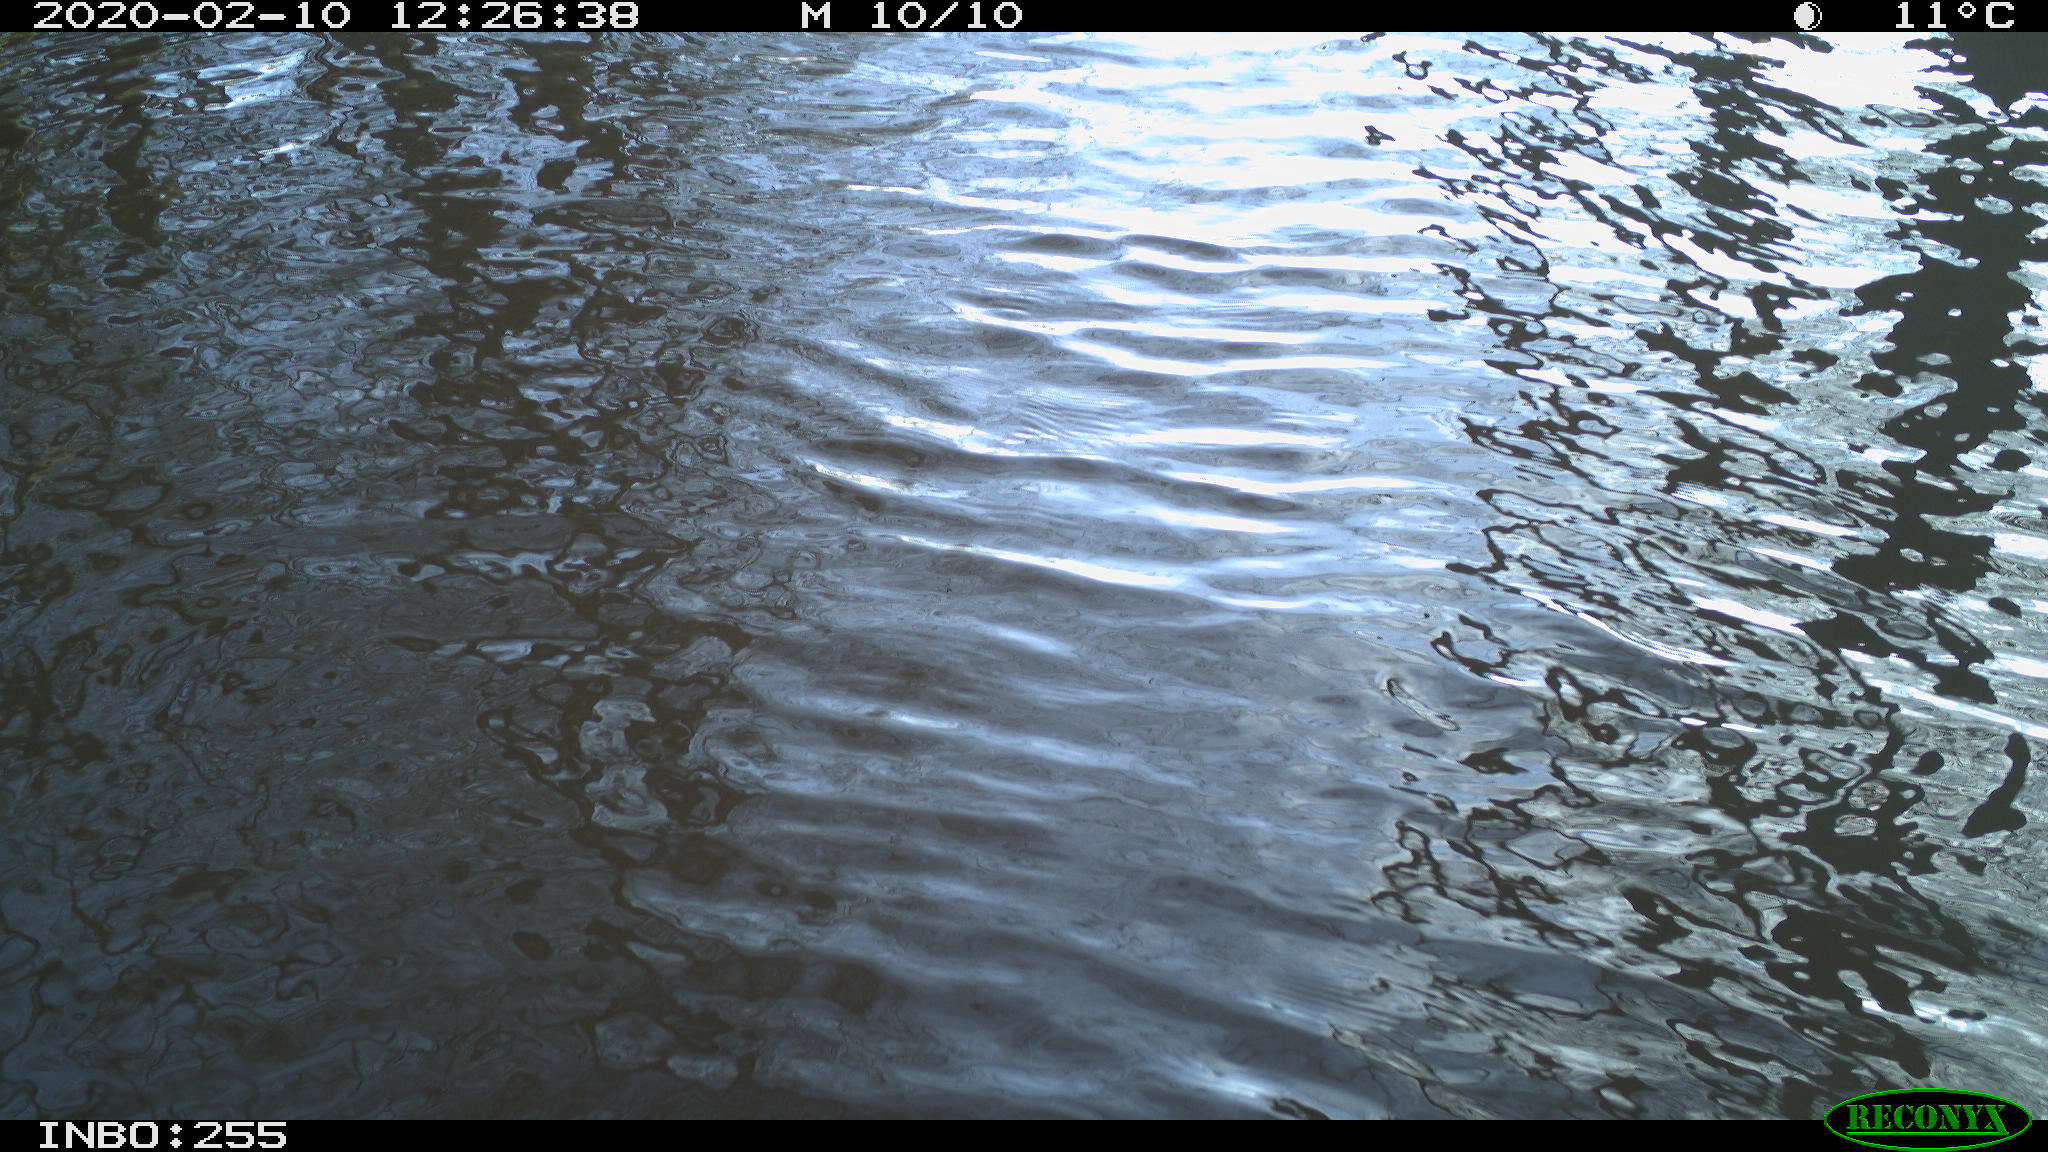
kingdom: Animalia
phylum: Chordata
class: Aves
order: Gruiformes
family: Rallidae
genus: Fulica
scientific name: Fulica atra
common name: Eurasian coot
